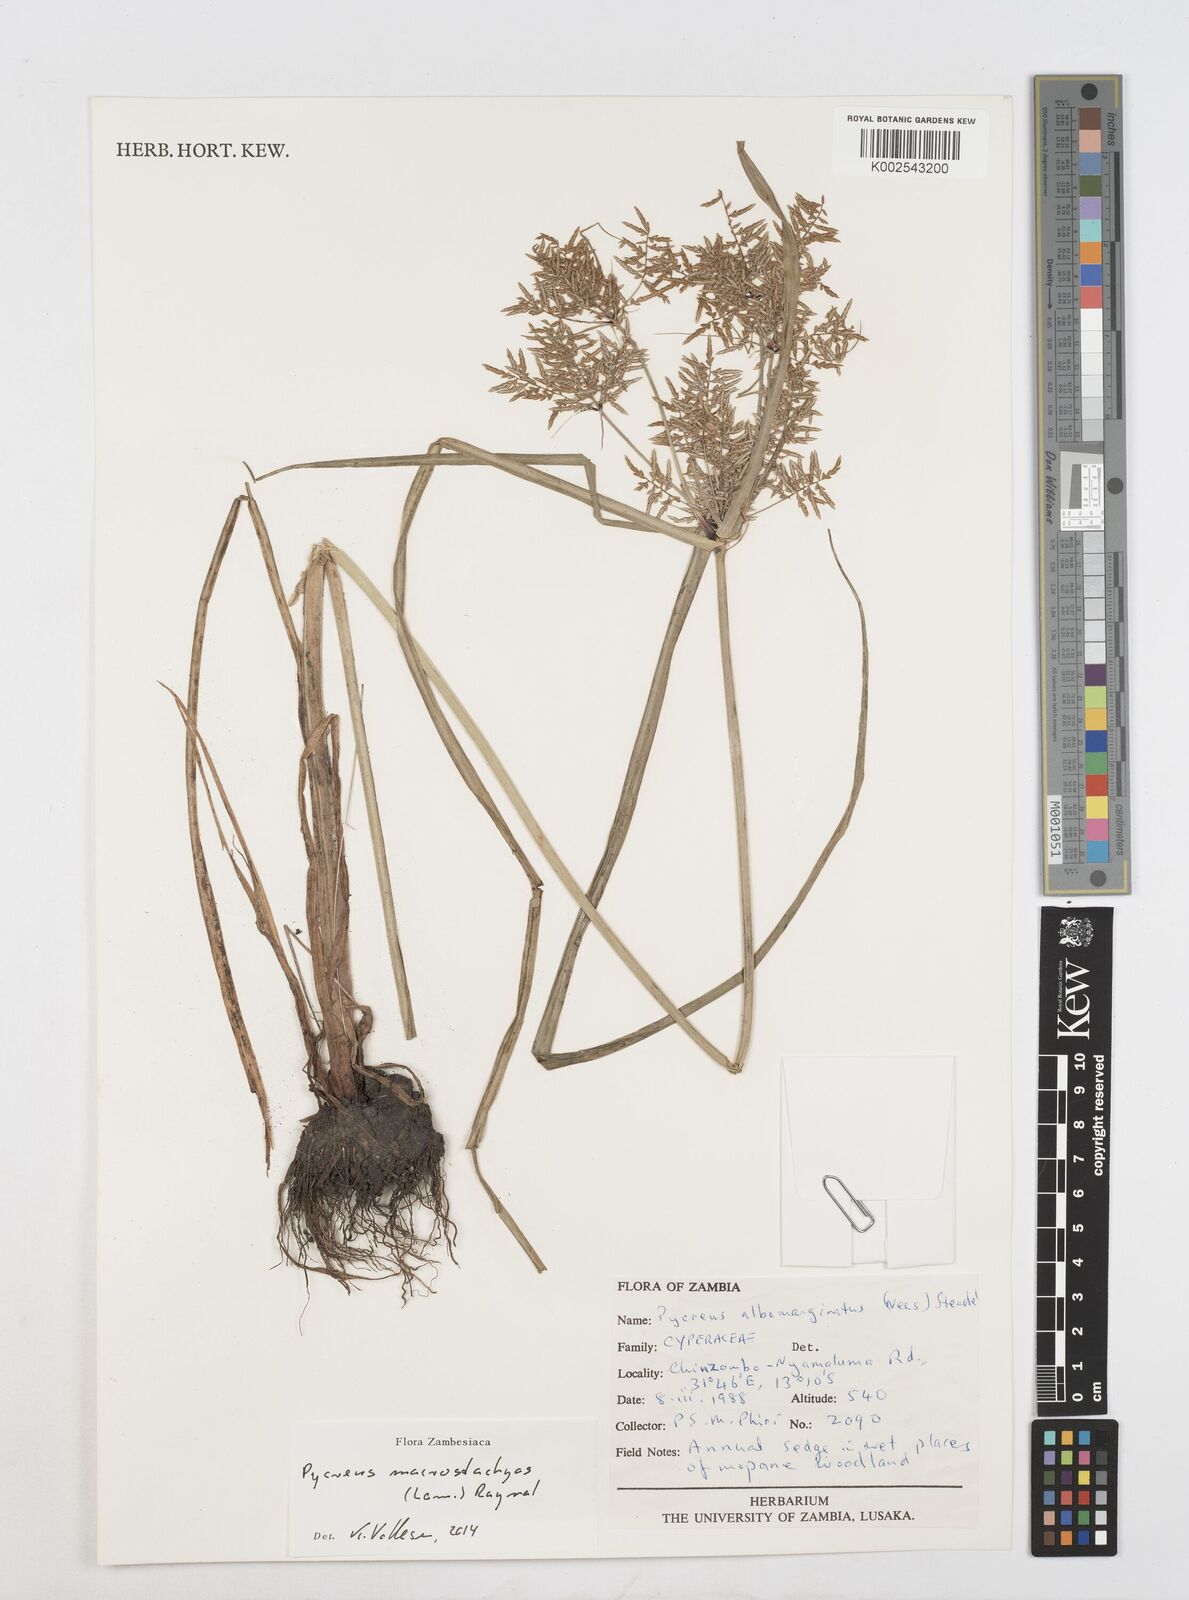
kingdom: Plantae
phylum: Tracheophyta
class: Liliopsida
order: Poales
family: Cyperaceae
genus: Cyperus
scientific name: Cyperus macrostachyos
